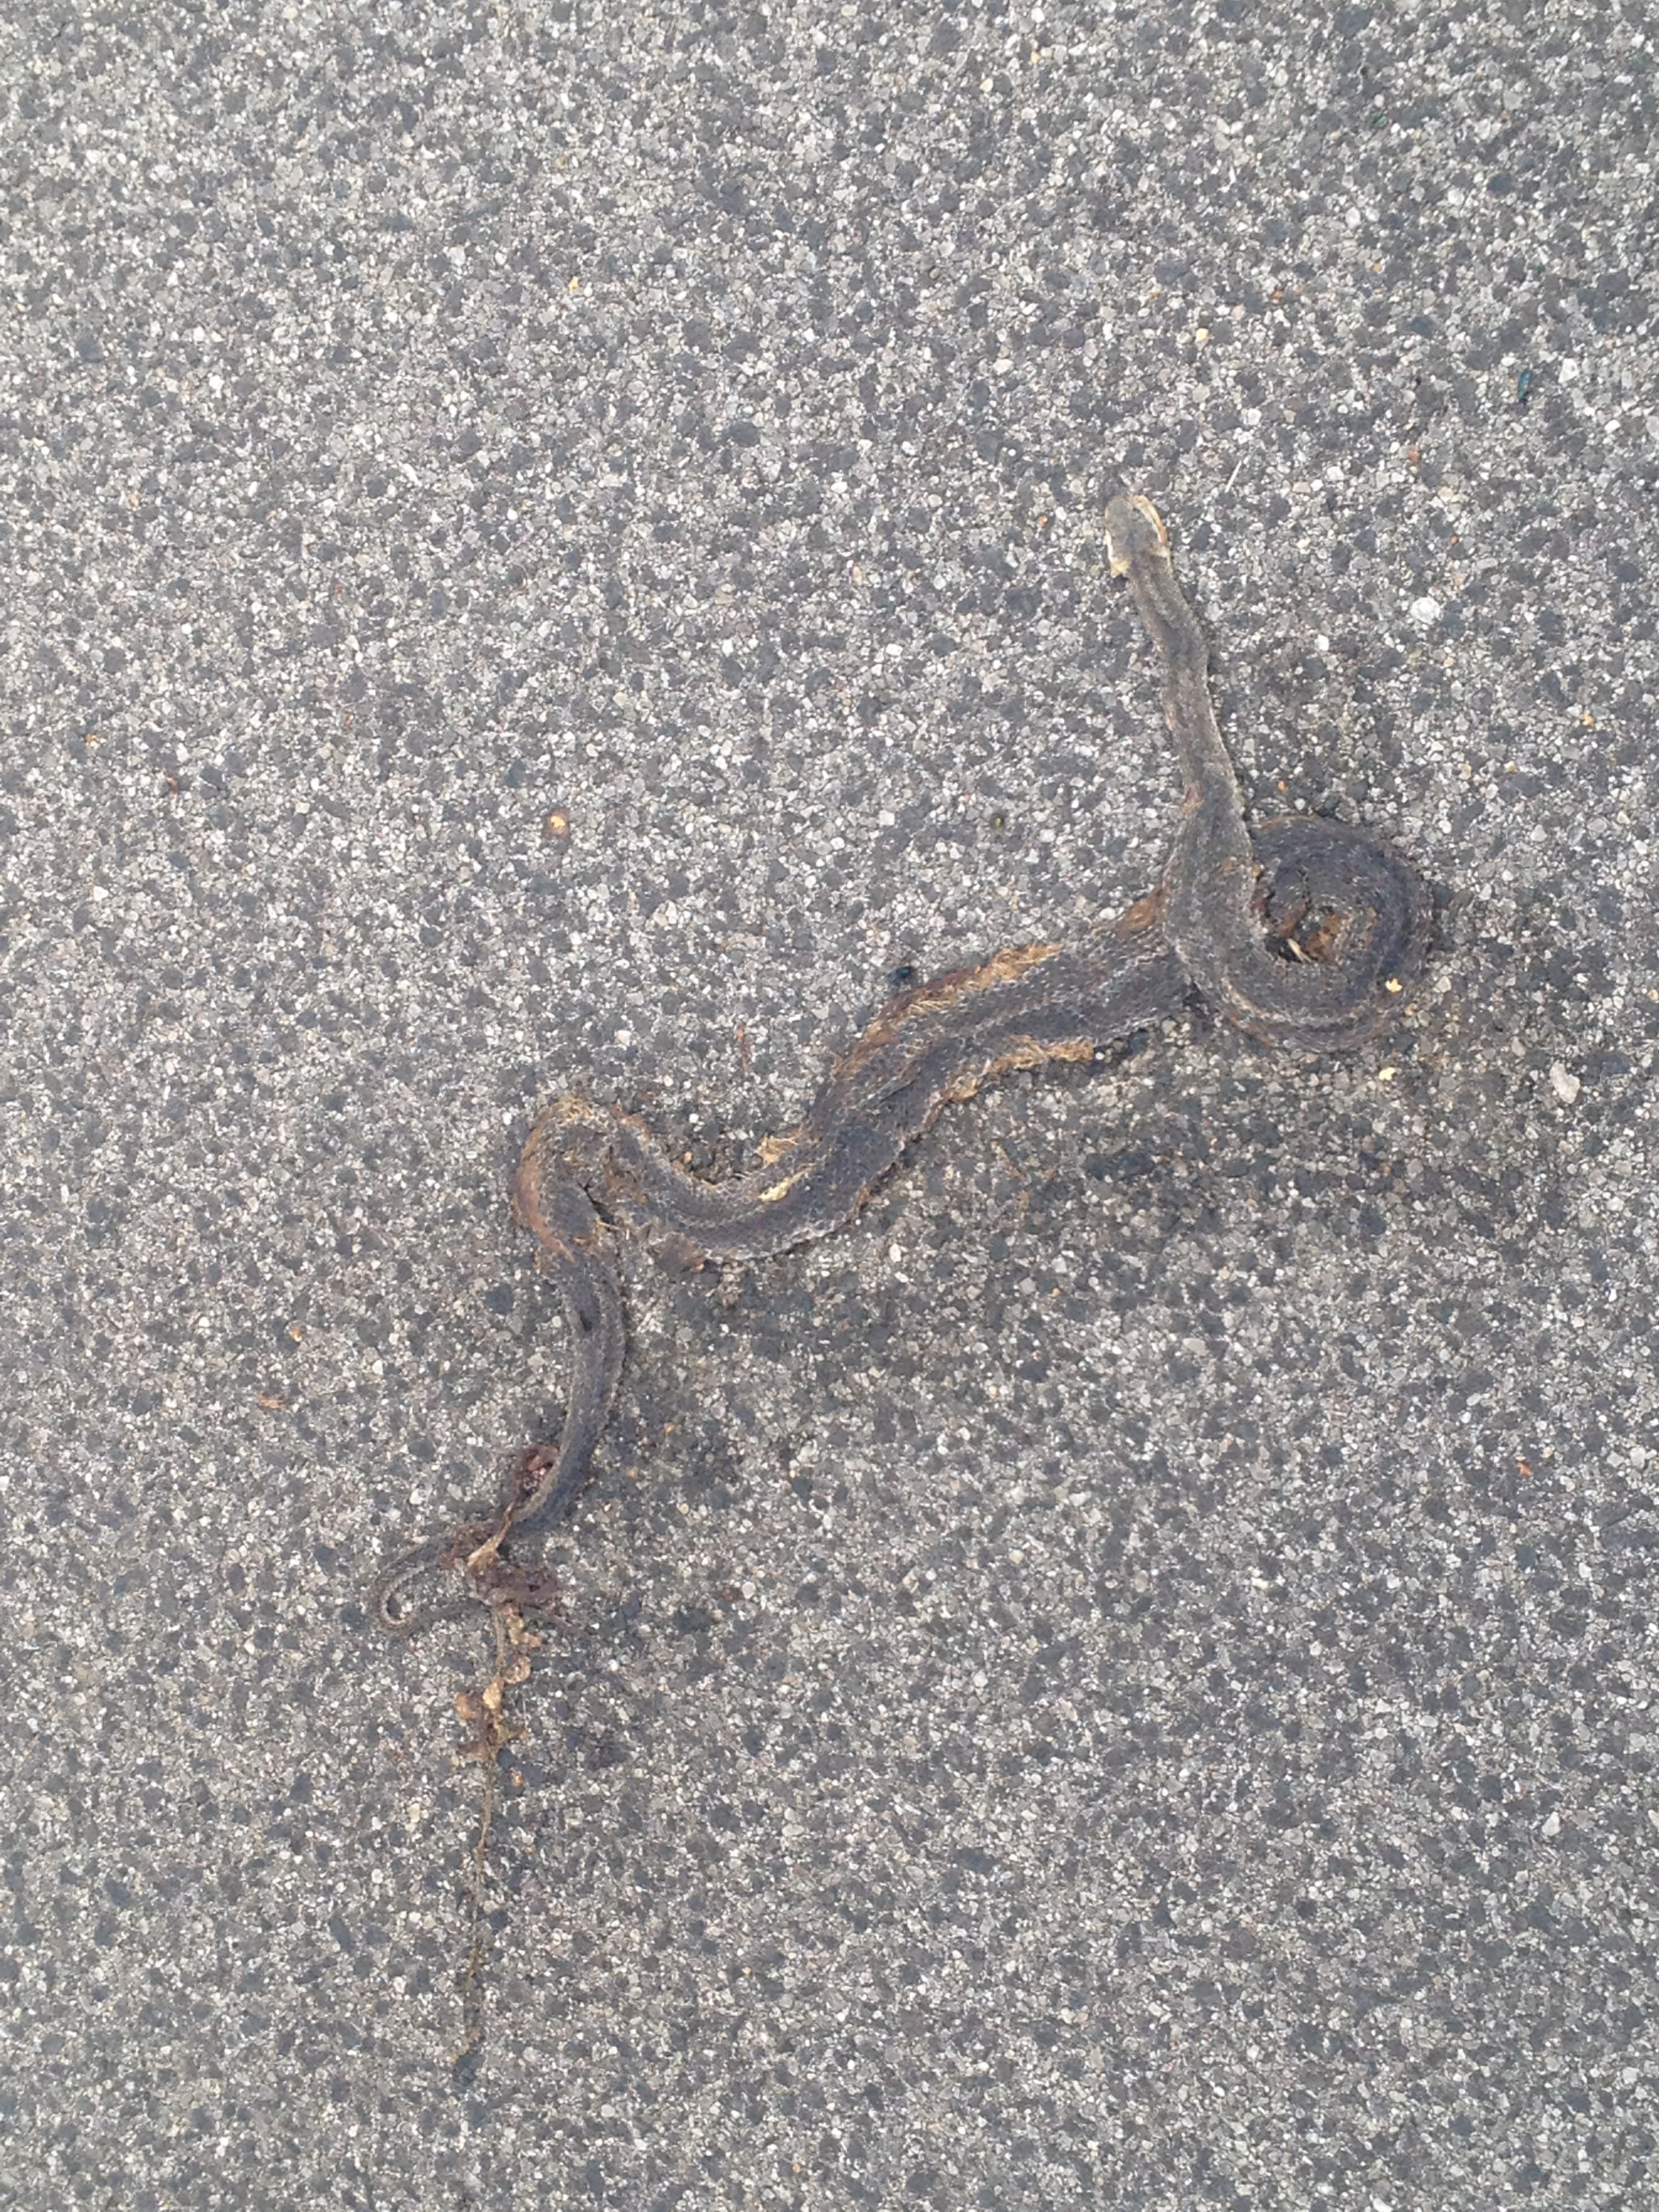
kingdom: Animalia
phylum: Chordata
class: Squamata
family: Colubridae
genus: Natrix
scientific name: Natrix natrix
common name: Grass snake
